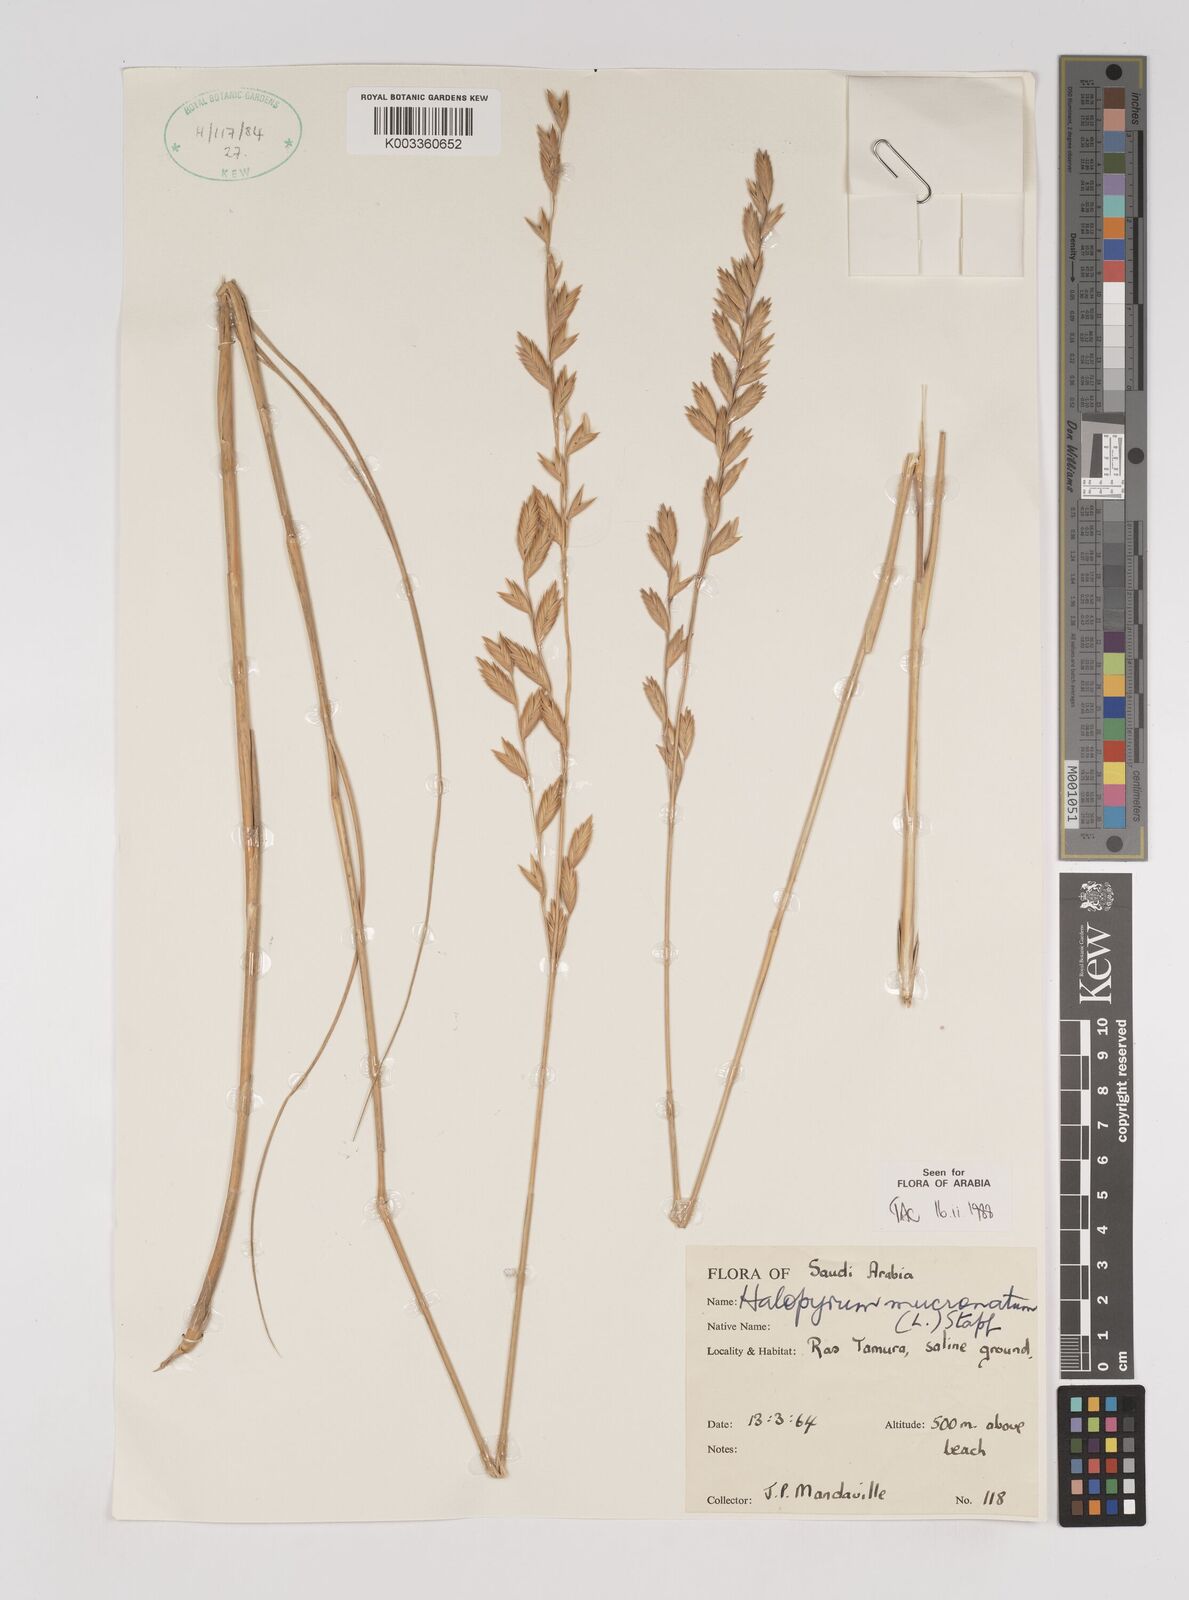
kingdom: Plantae
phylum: Tracheophyta
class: Liliopsida
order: Poales
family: Poaceae
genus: Halopyrum
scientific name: Halopyrum mucronatum
